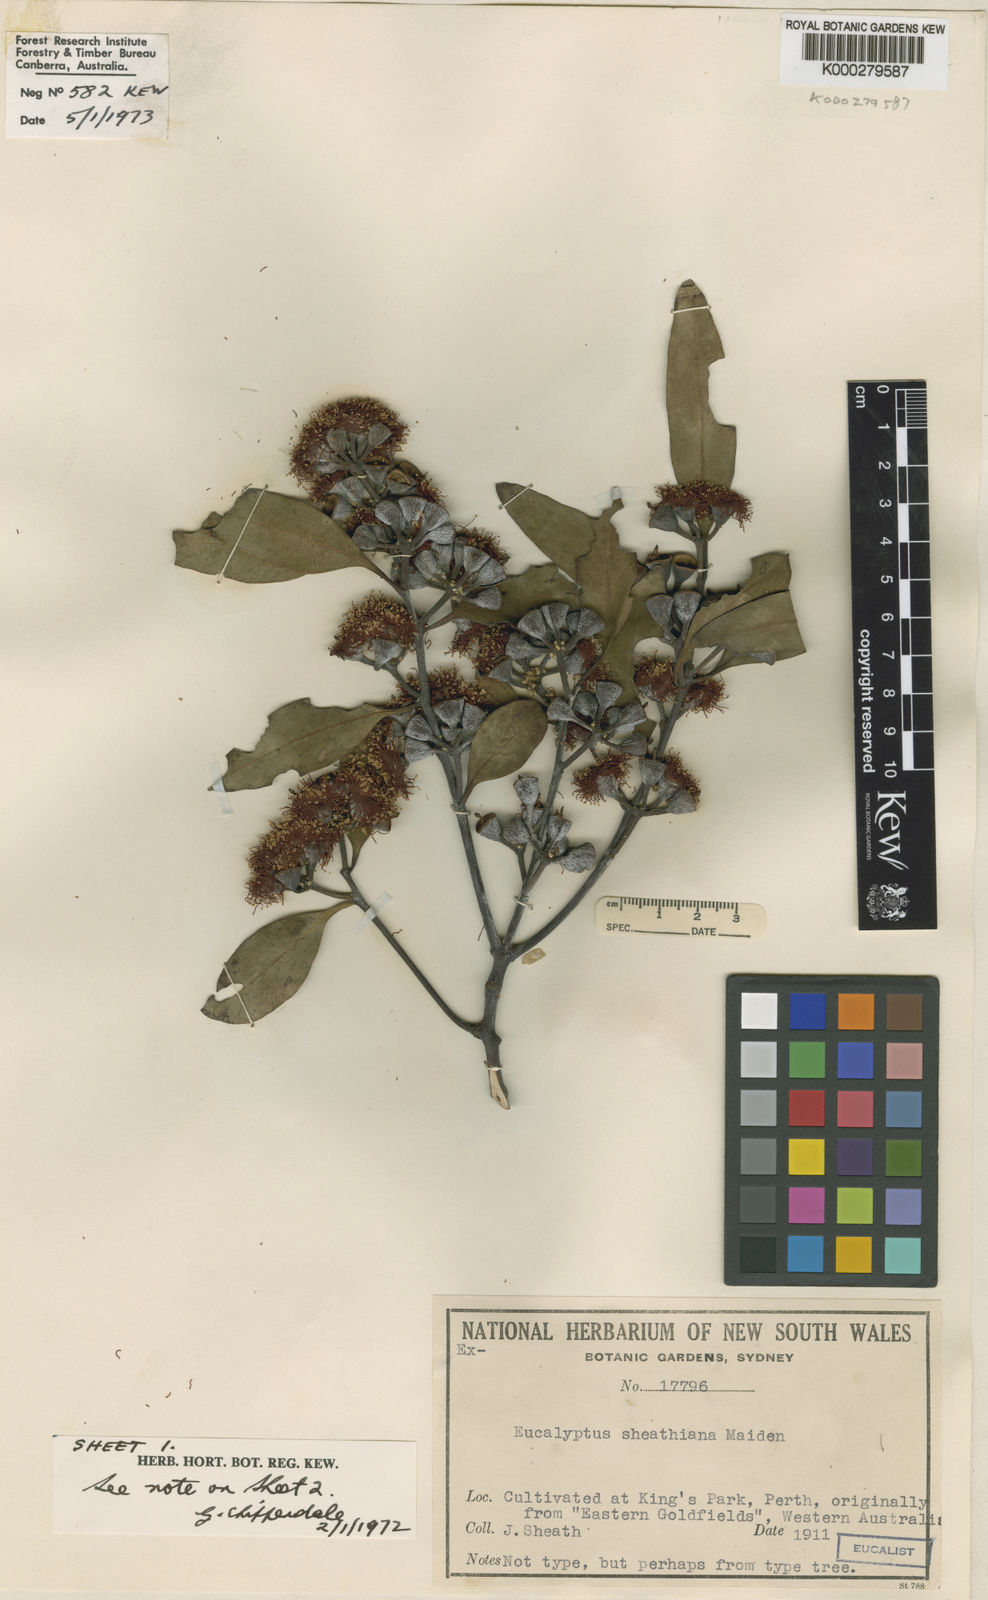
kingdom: Plantae
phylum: Tracheophyta
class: Magnoliopsida
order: Myrtales
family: Myrtaceae
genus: Eucalyptus
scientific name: Eucalyptus sheathiana
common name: Ribbon-barked mallee
